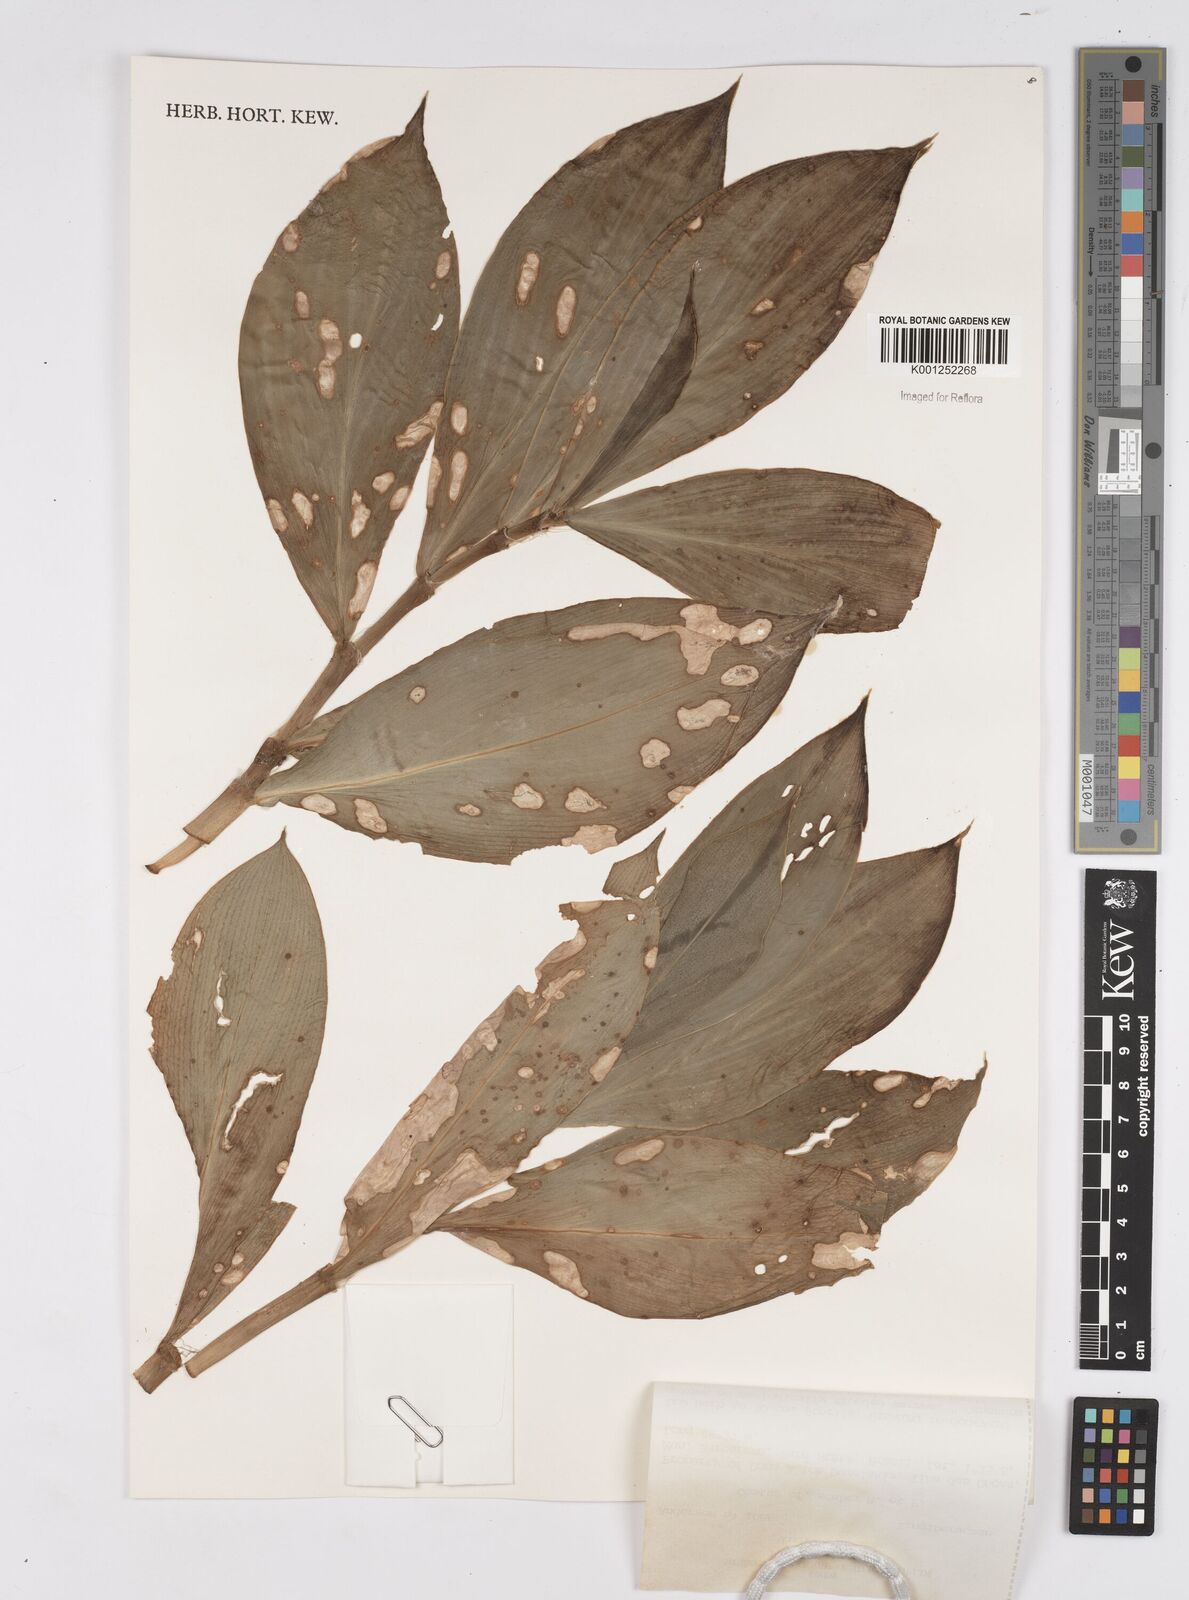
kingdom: Plantae
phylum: Tracheophyta
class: Liliopsida
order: Zingiberales
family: Costaceae
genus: Costus
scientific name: Costus scaber
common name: Spiral head ginger
